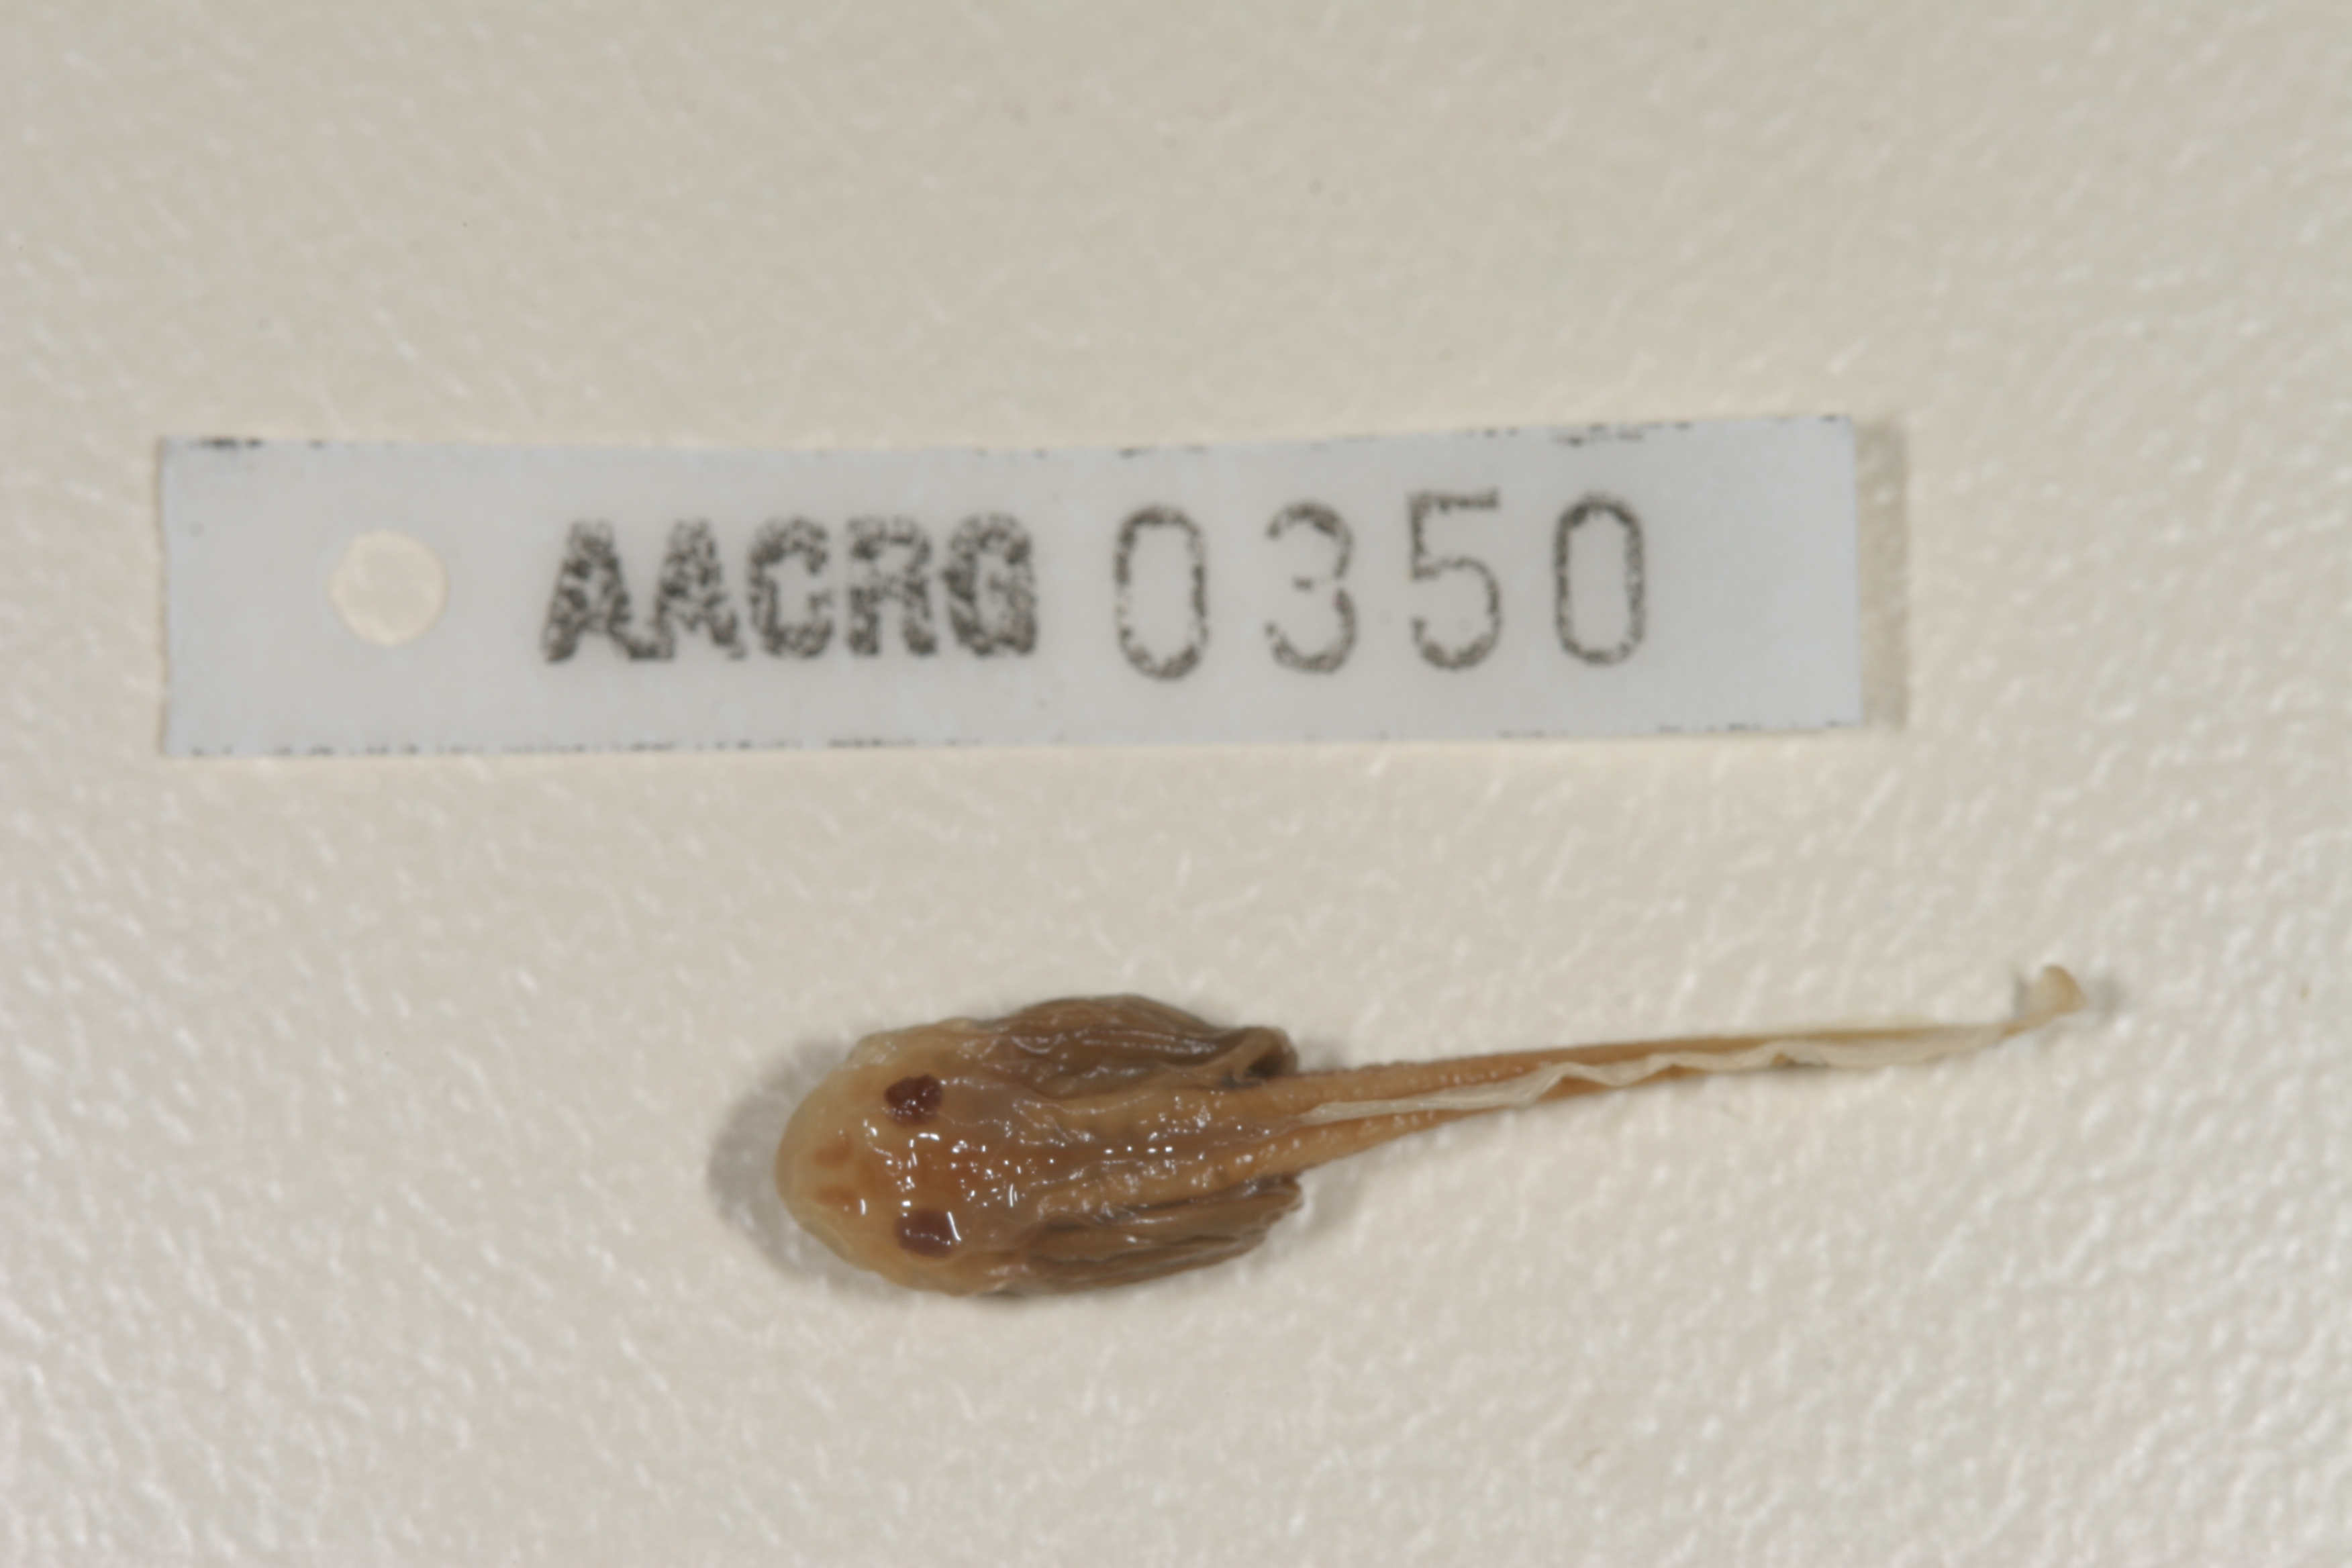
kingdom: Animalia
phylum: Chordata
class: Amphibia
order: Anura
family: Pyxicephalidae
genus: Tomopterna
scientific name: Tomopterna cryptotis
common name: Catequero bullfrog
